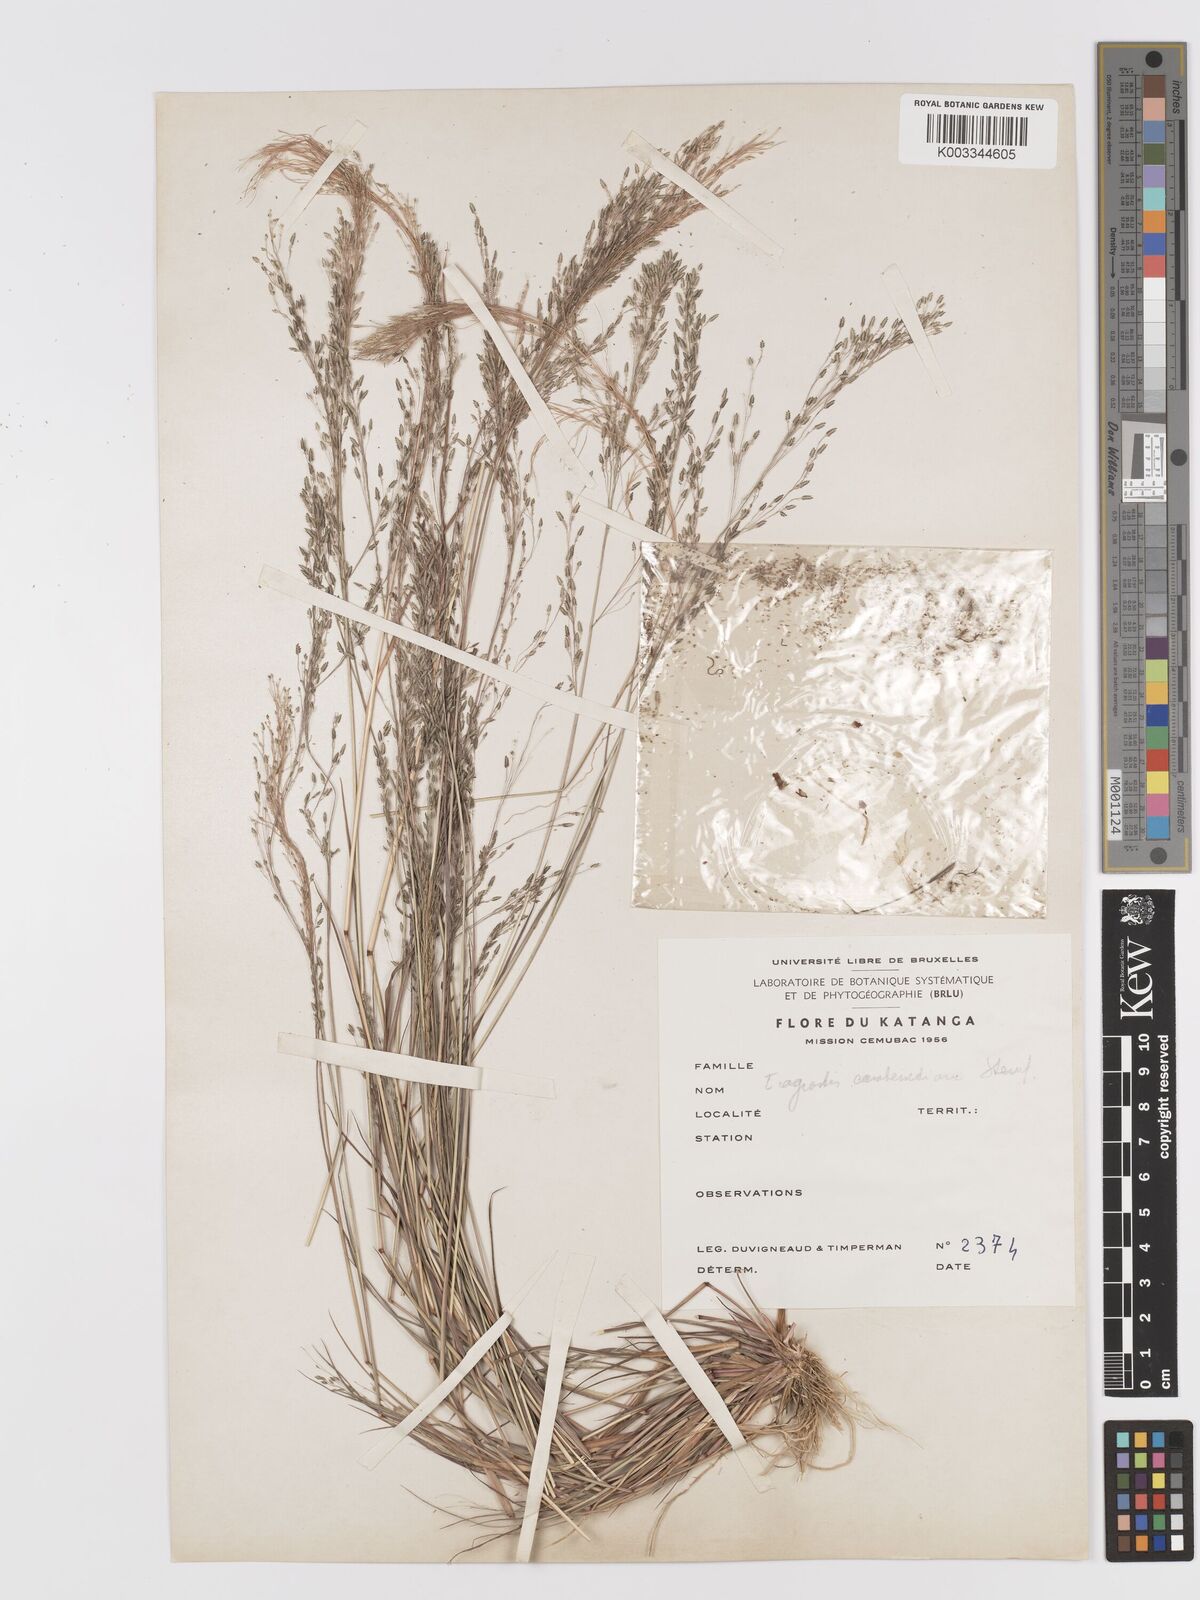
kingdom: Plantae
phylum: Tracheophyta
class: Liliopsida
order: Poales
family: Poaceae
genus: Eragrostis
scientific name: Eragrostis gangetica
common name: Slimflower lovegrass
